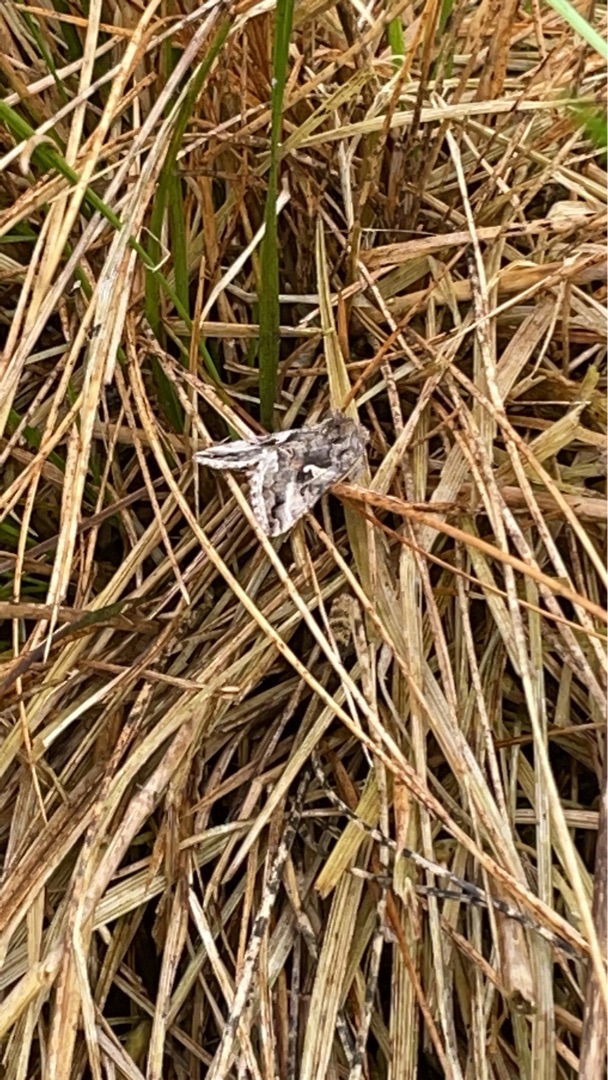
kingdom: Animalia
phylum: Arthropoda
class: Insecta
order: Lepidoptera
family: Noctuidae
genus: Autographa
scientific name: Autographa gamma
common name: Gammaugle
